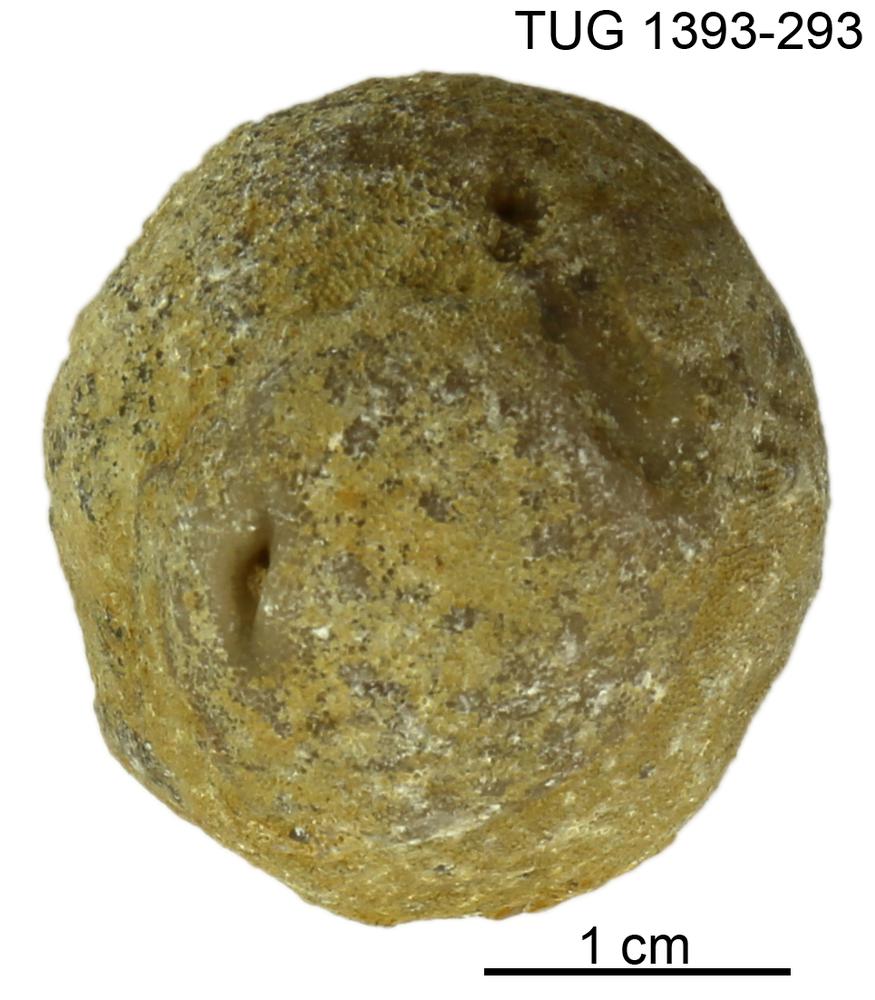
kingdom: Animalia
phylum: Bryozoa
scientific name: Bryozoa
